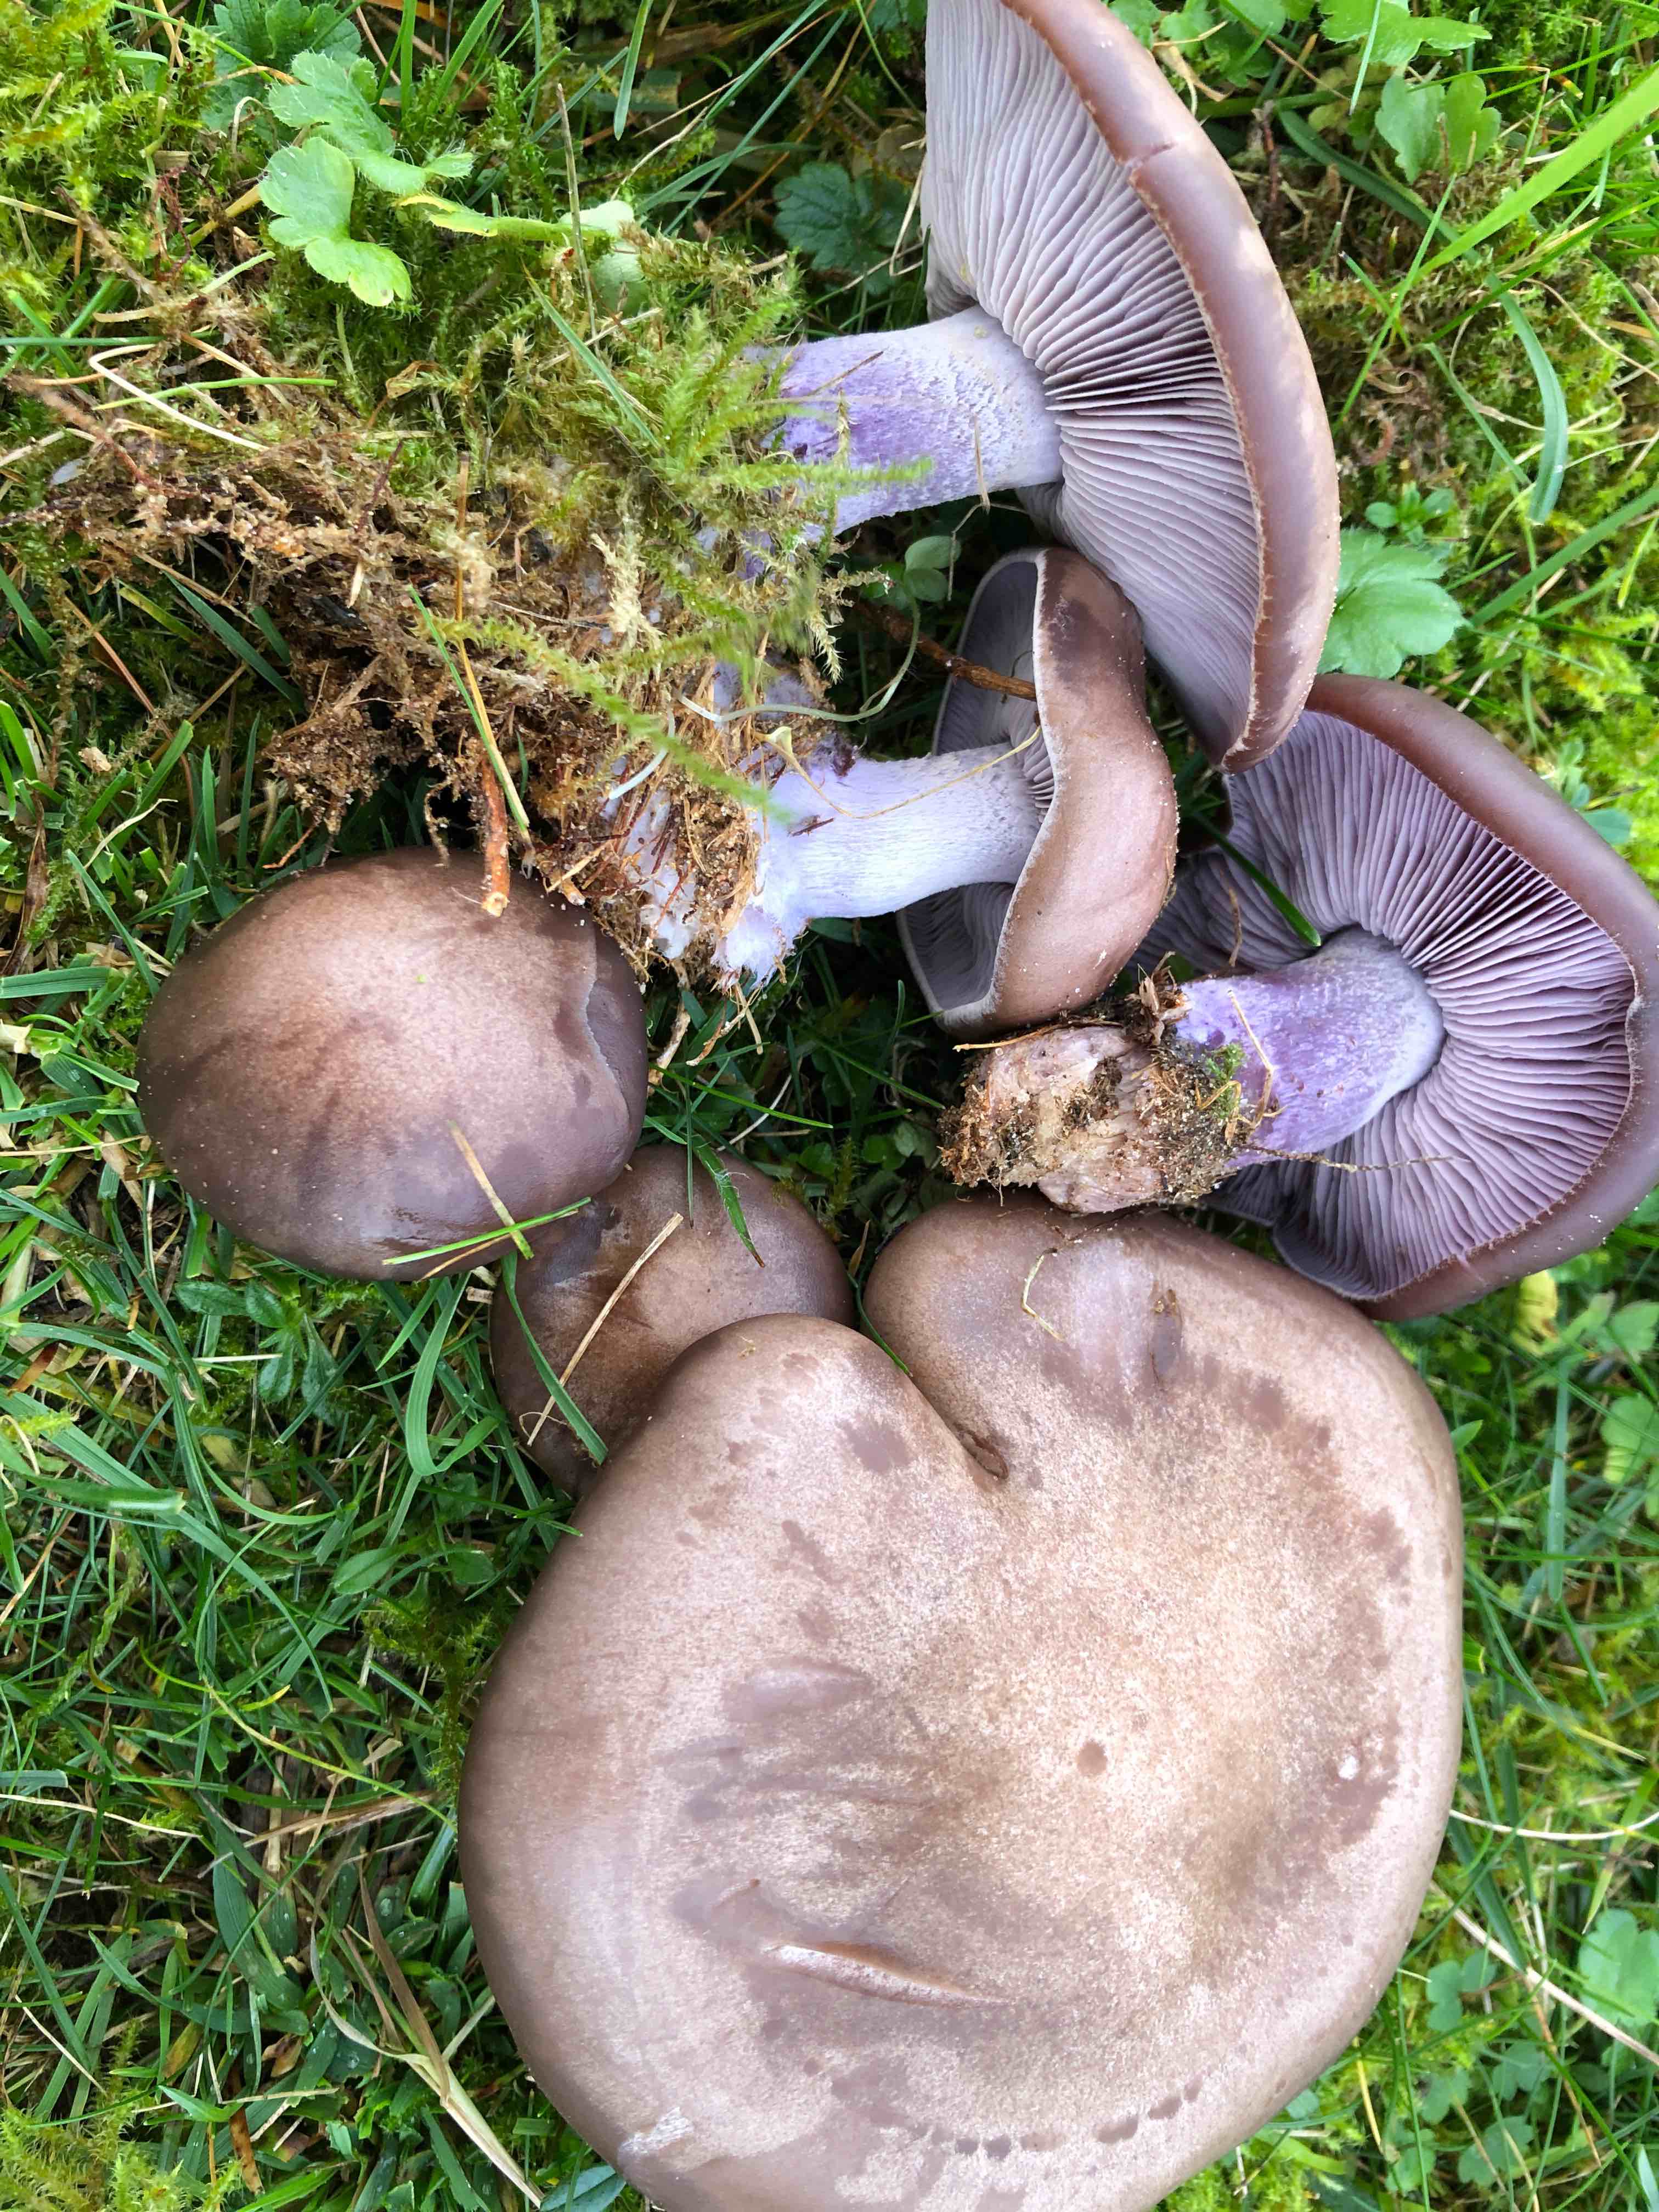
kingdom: Fungi
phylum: Basidiomycota
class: Agaricomycetes
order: Agaricales
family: Tricholomataceae
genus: Lepista
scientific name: Lepista nuda
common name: violet hekseringshat
